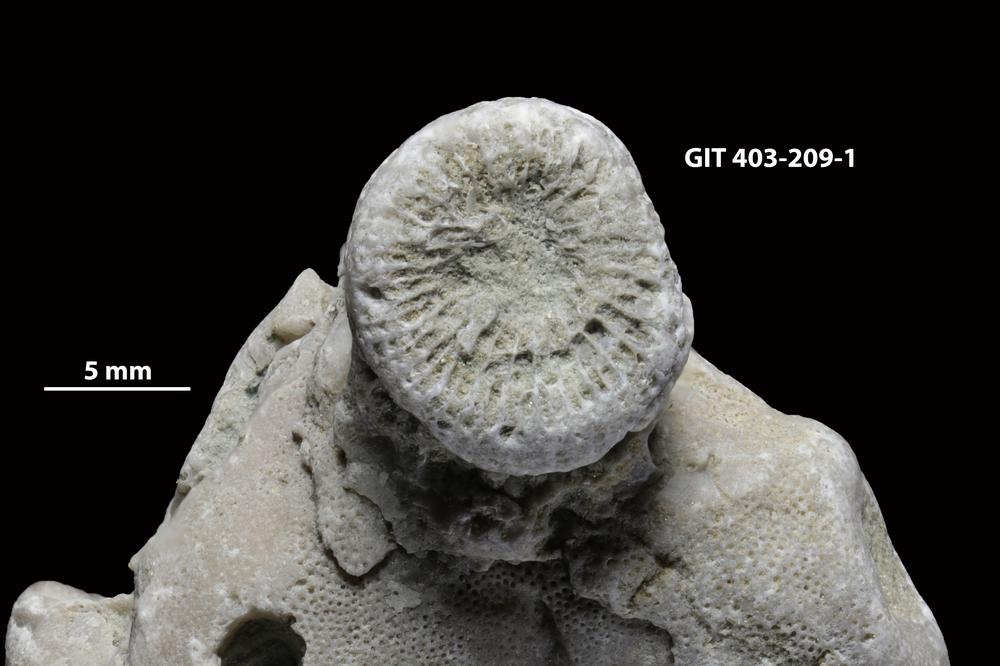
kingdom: Animalia
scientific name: Animalia
